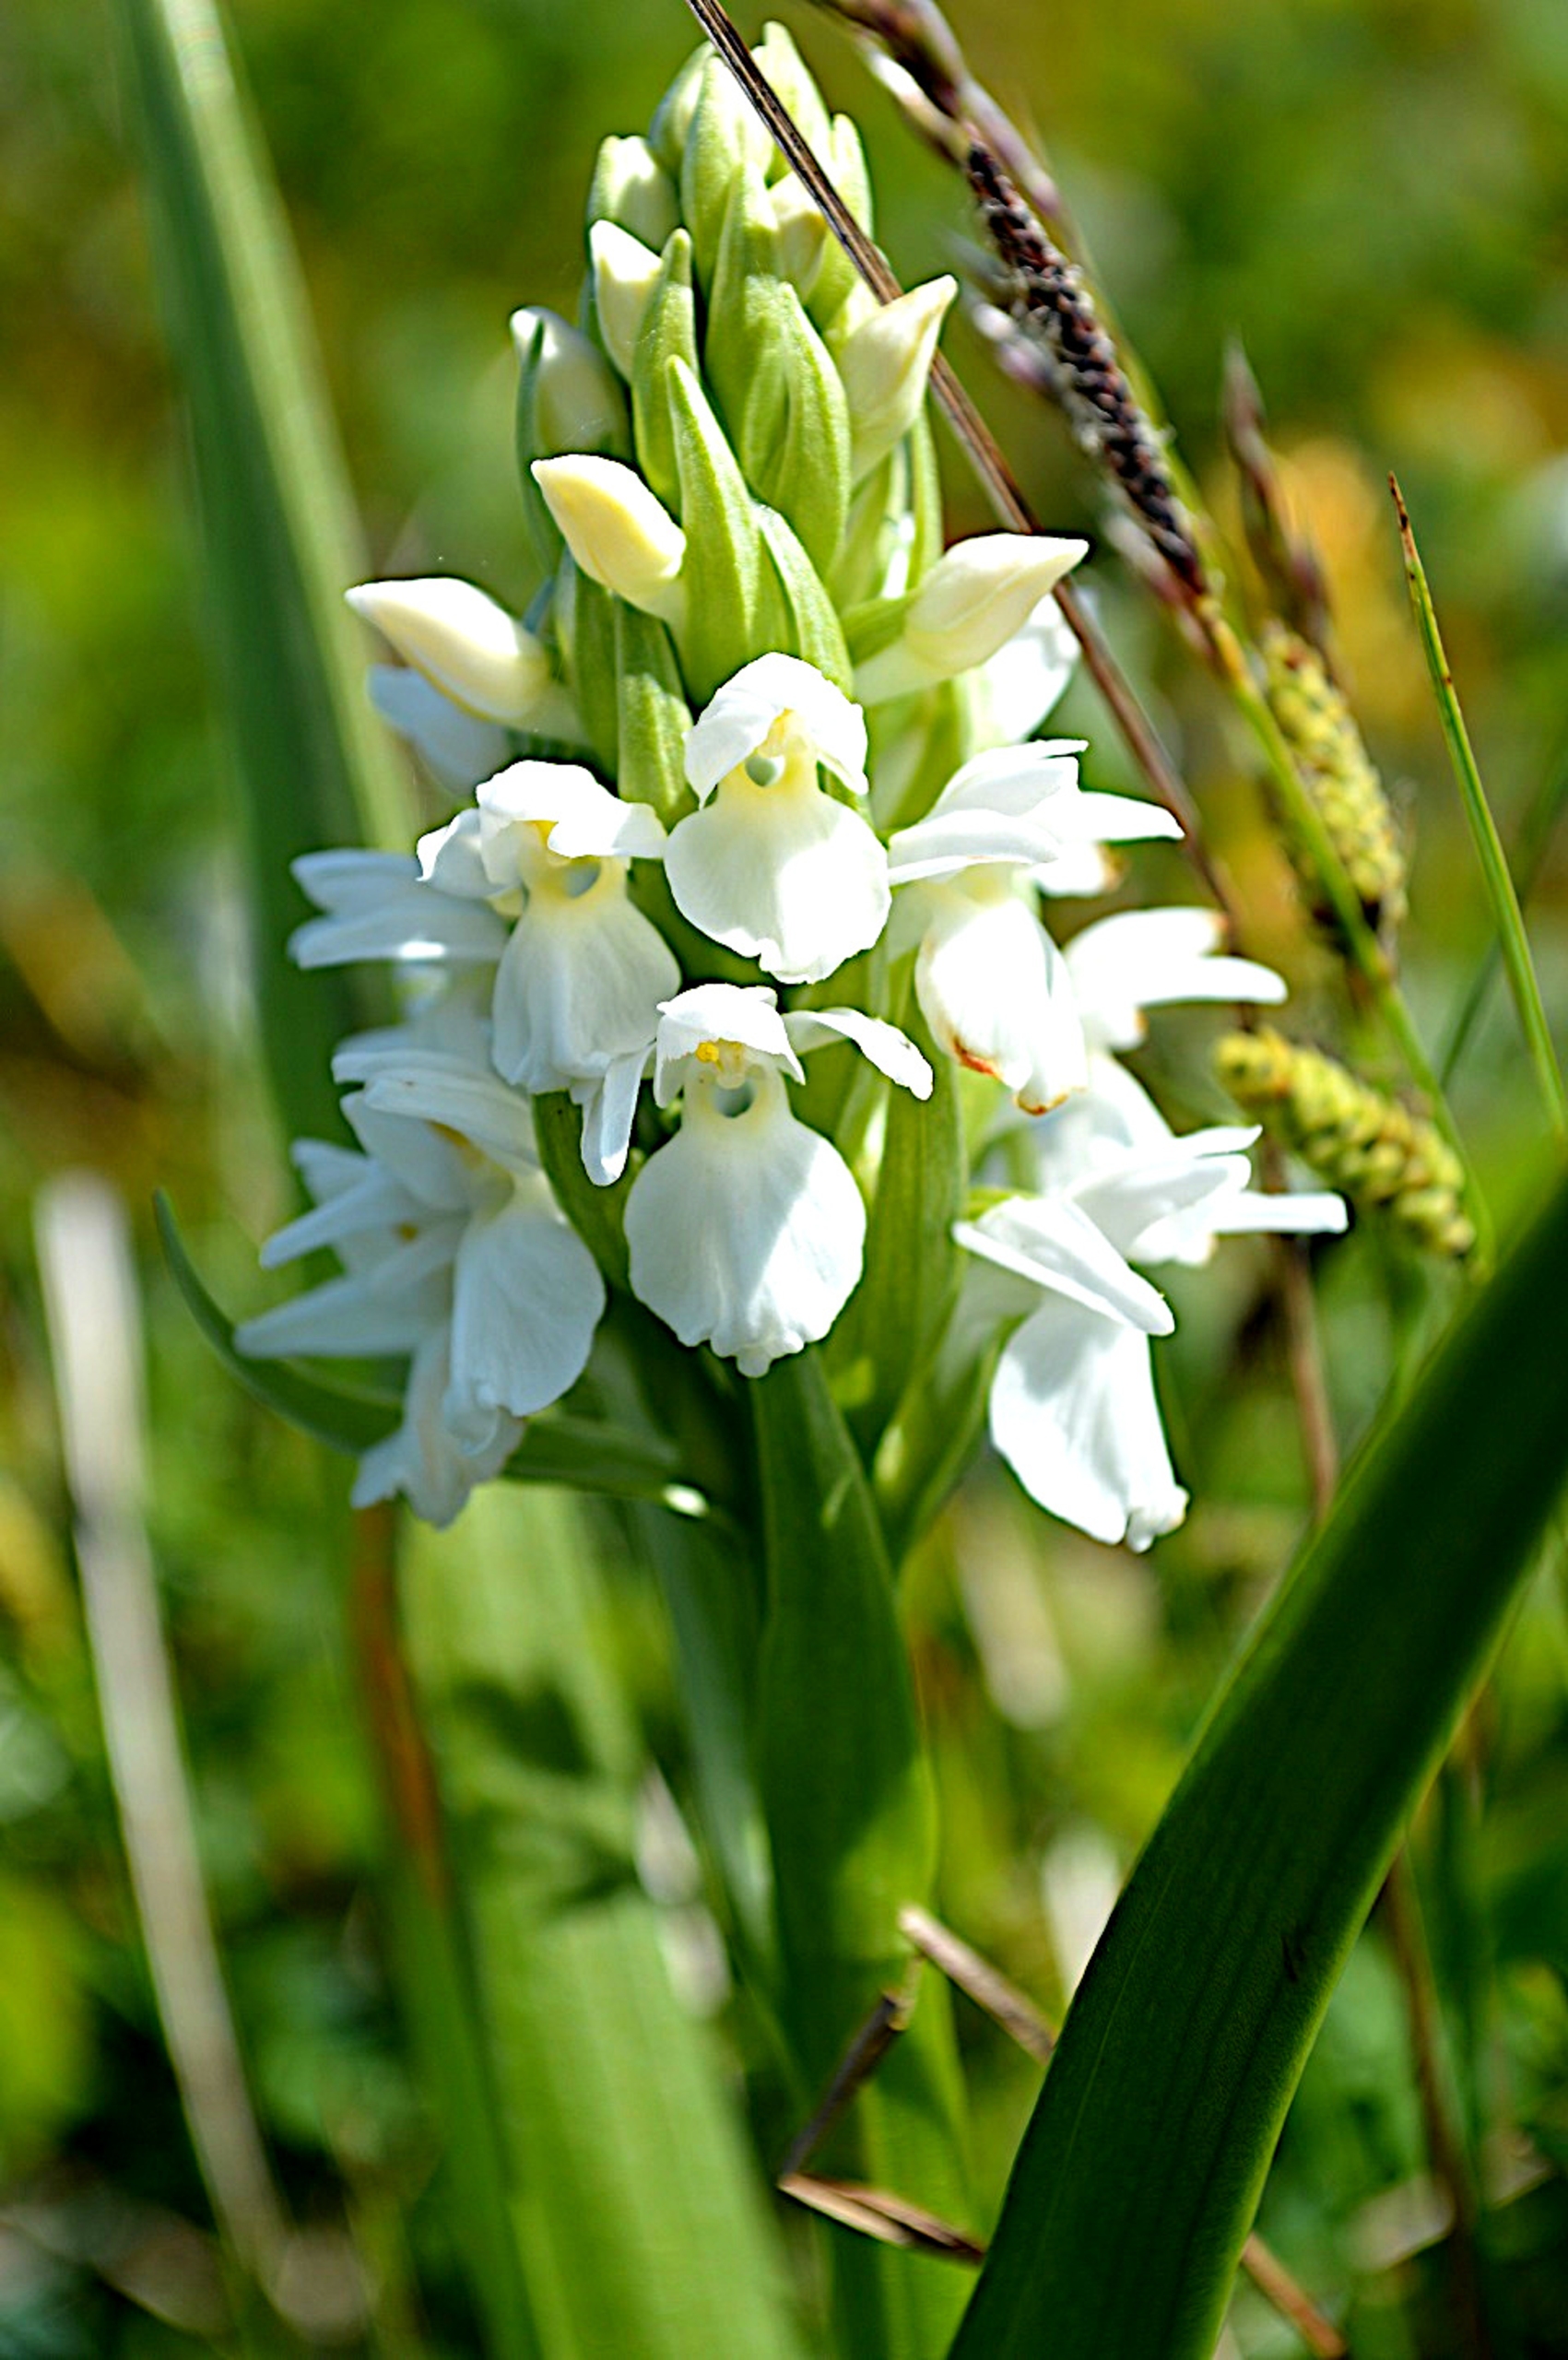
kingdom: Plantae
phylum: Tracheophyta
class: Liliopsida
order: Asparagales
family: Orchidaceae
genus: Dactylorhiza
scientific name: Dactylorhiza majalis
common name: Thy-gøgeurt
